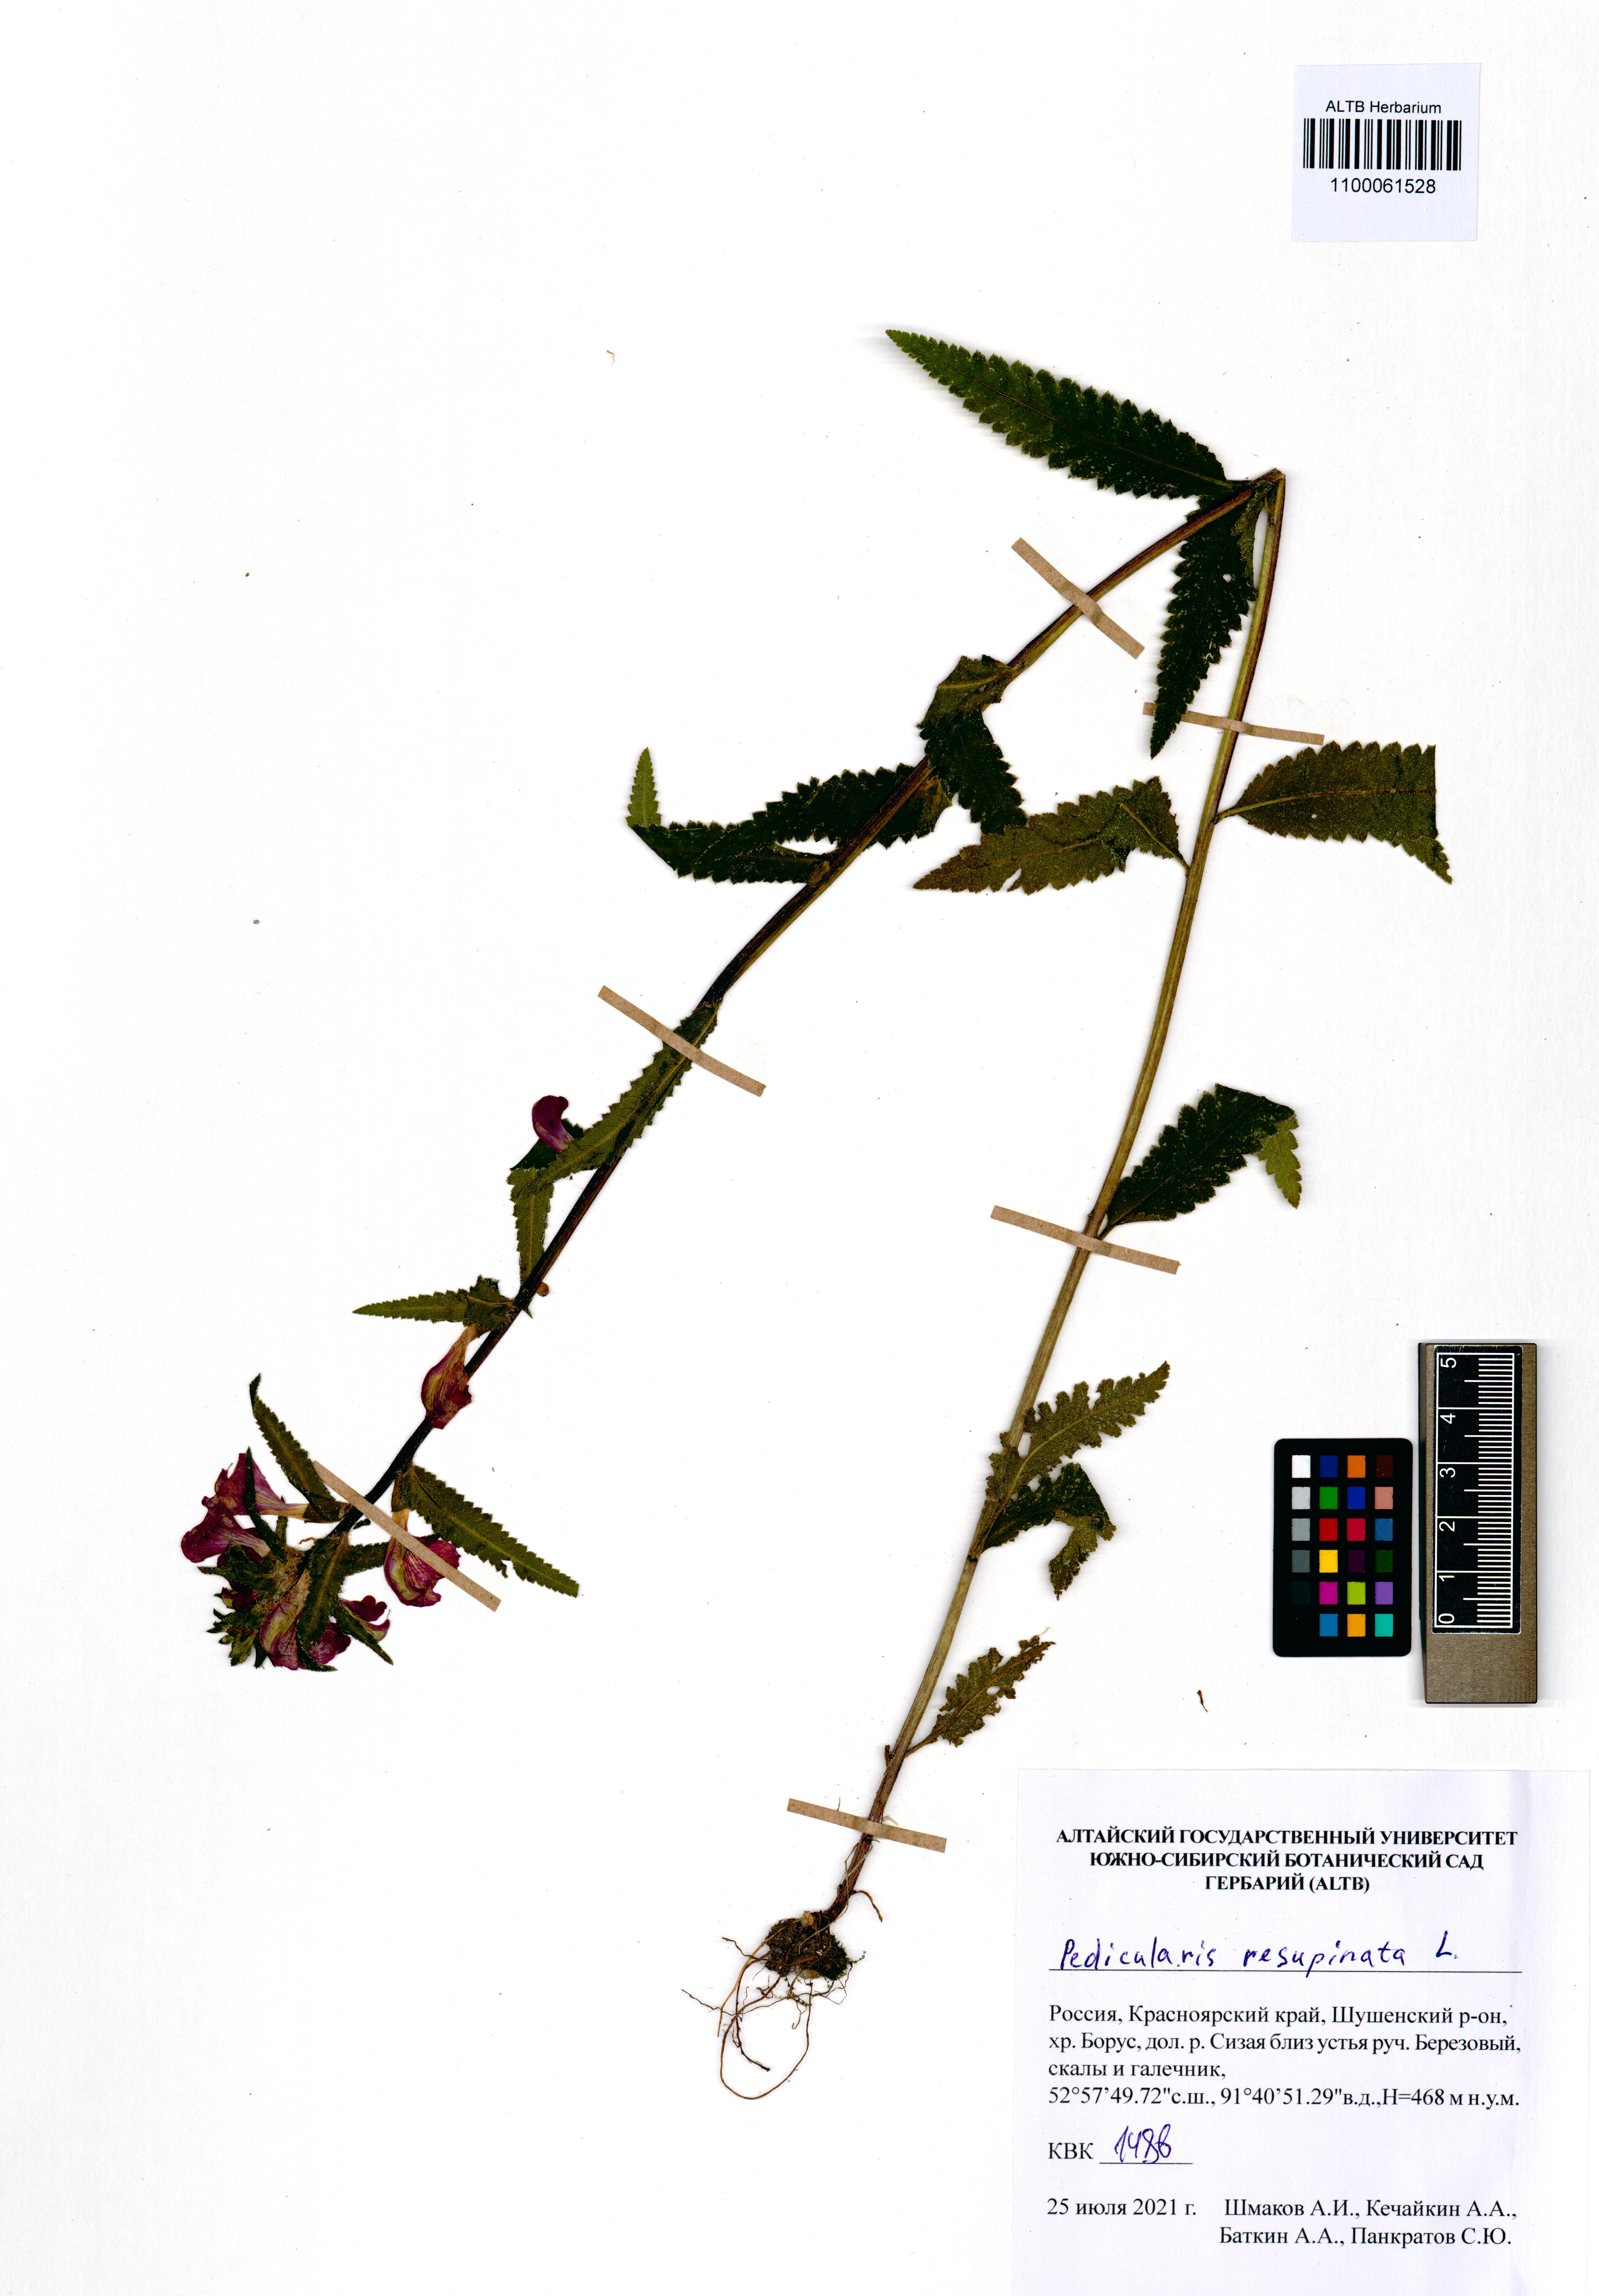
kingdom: Plantae
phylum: Tracheophyta
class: Magnoliopsida
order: Lamiales
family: Orobanchaceae
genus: Pedicularis
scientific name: Pedicularis resupinata
